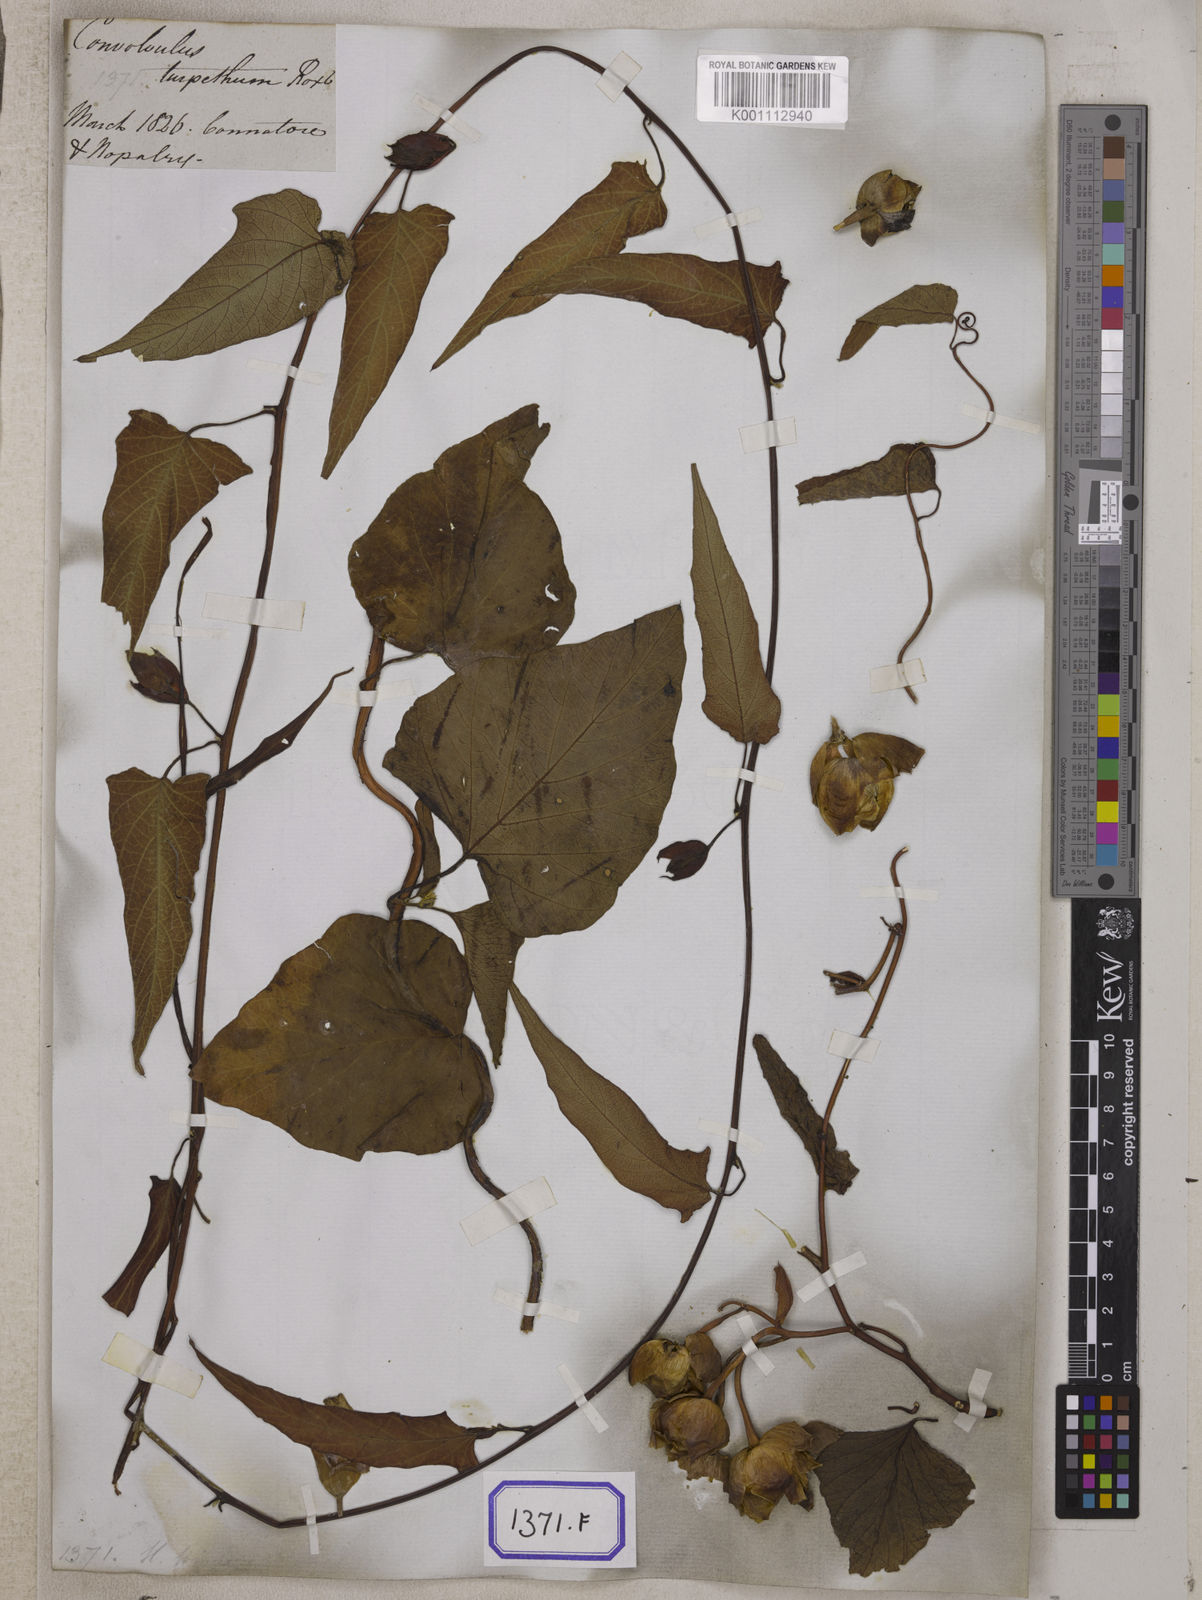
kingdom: Plantae
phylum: Tracheophyta
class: Magnoliopsida
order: Solanales
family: Convolvulaceae
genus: Operculina
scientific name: Operculina turpethum
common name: Transparent wood-rose
